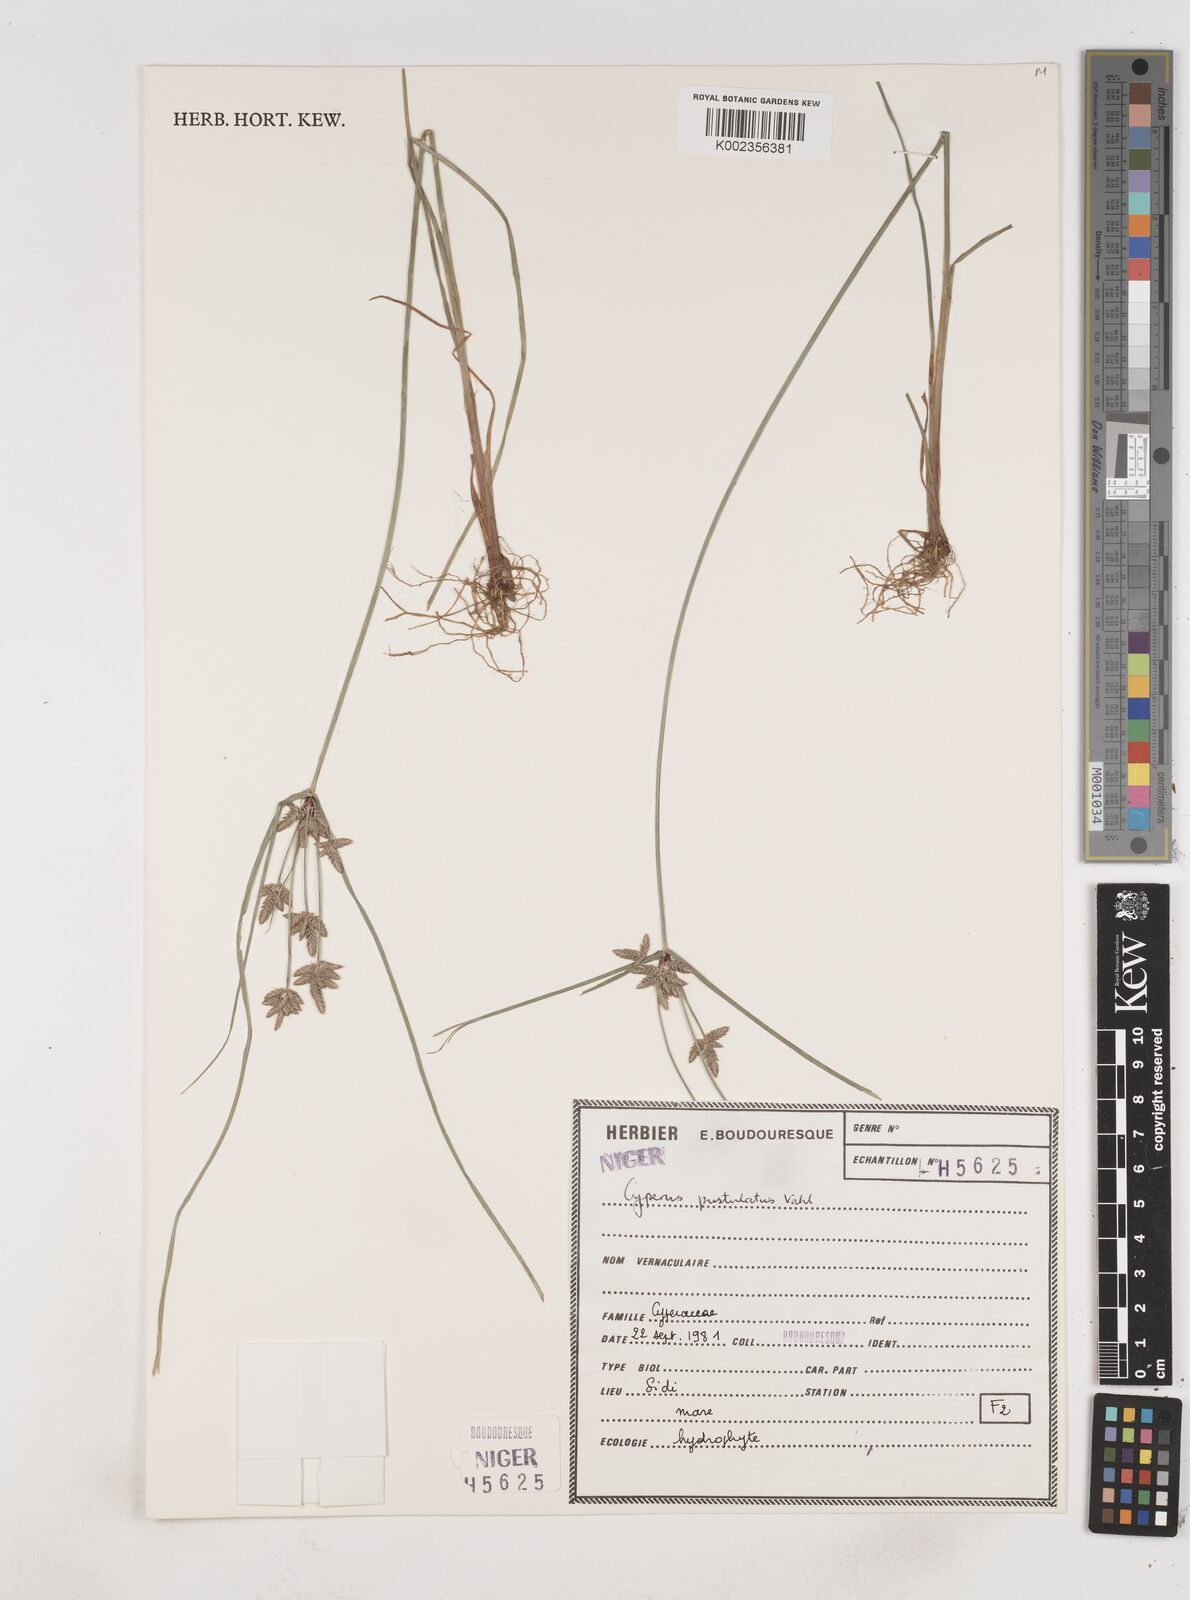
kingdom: Plantae
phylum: Tracheophyta
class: Liliopsida
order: Poales
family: Cyperaceae
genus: Cyperus
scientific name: Cyperus pustulatus
